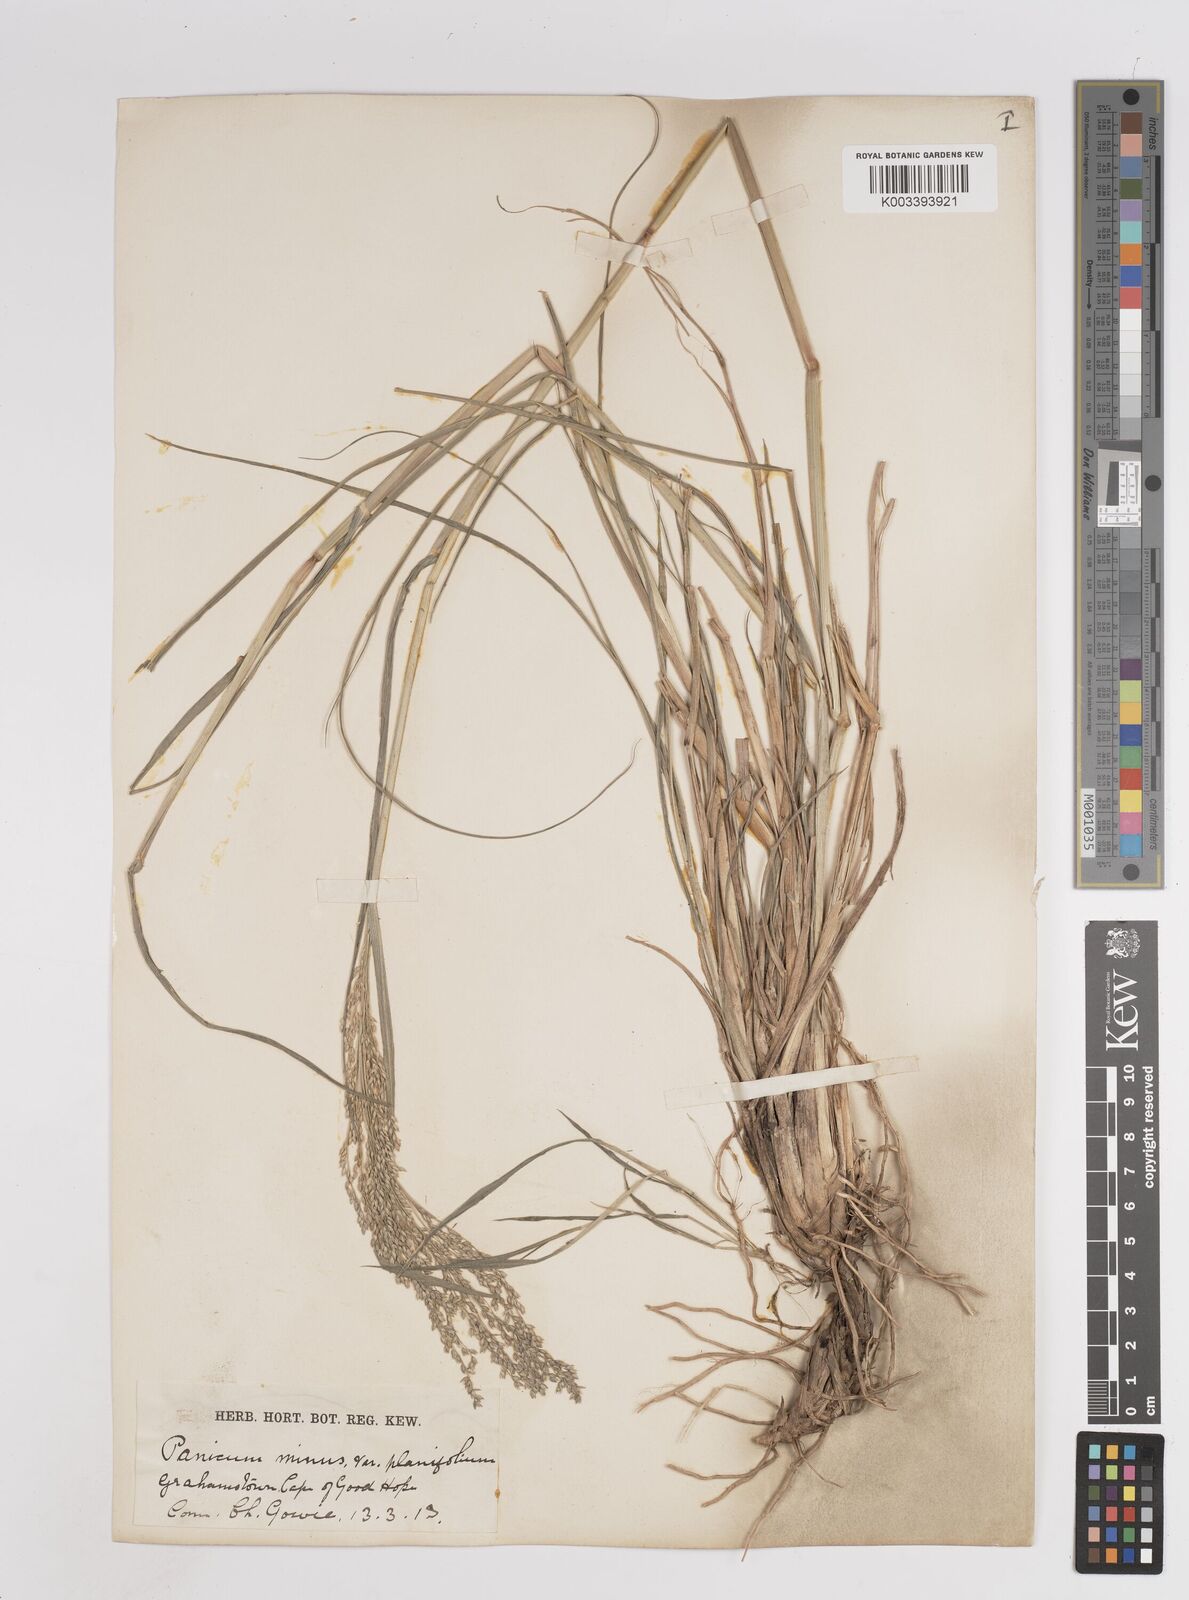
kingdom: Plantae
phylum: Tracheophyta
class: Liliopsida
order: Poales
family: Poaceae
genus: Panicum
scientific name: Panicum
